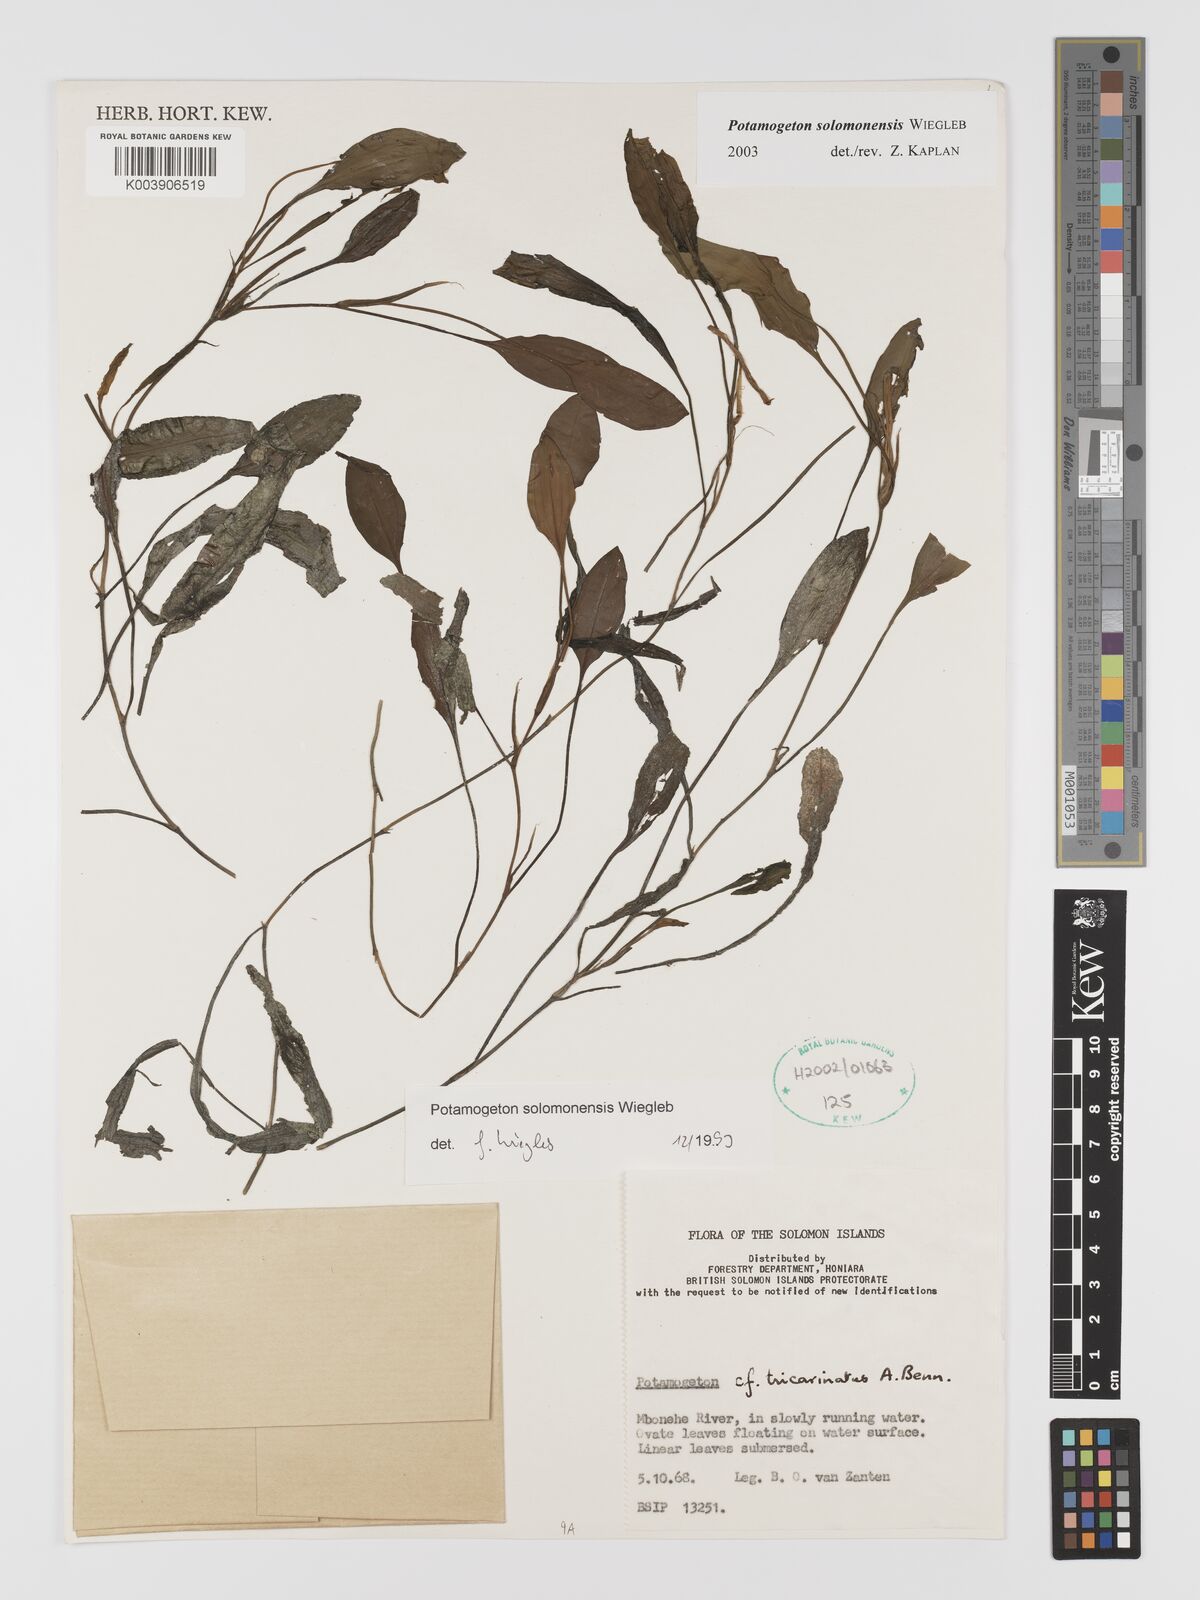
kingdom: Plantae
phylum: Tracheophyta
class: Liliopsida
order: Alismatales
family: Potamogetonaceae
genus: Potamogeton
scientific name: Potamogeton solomonensis
